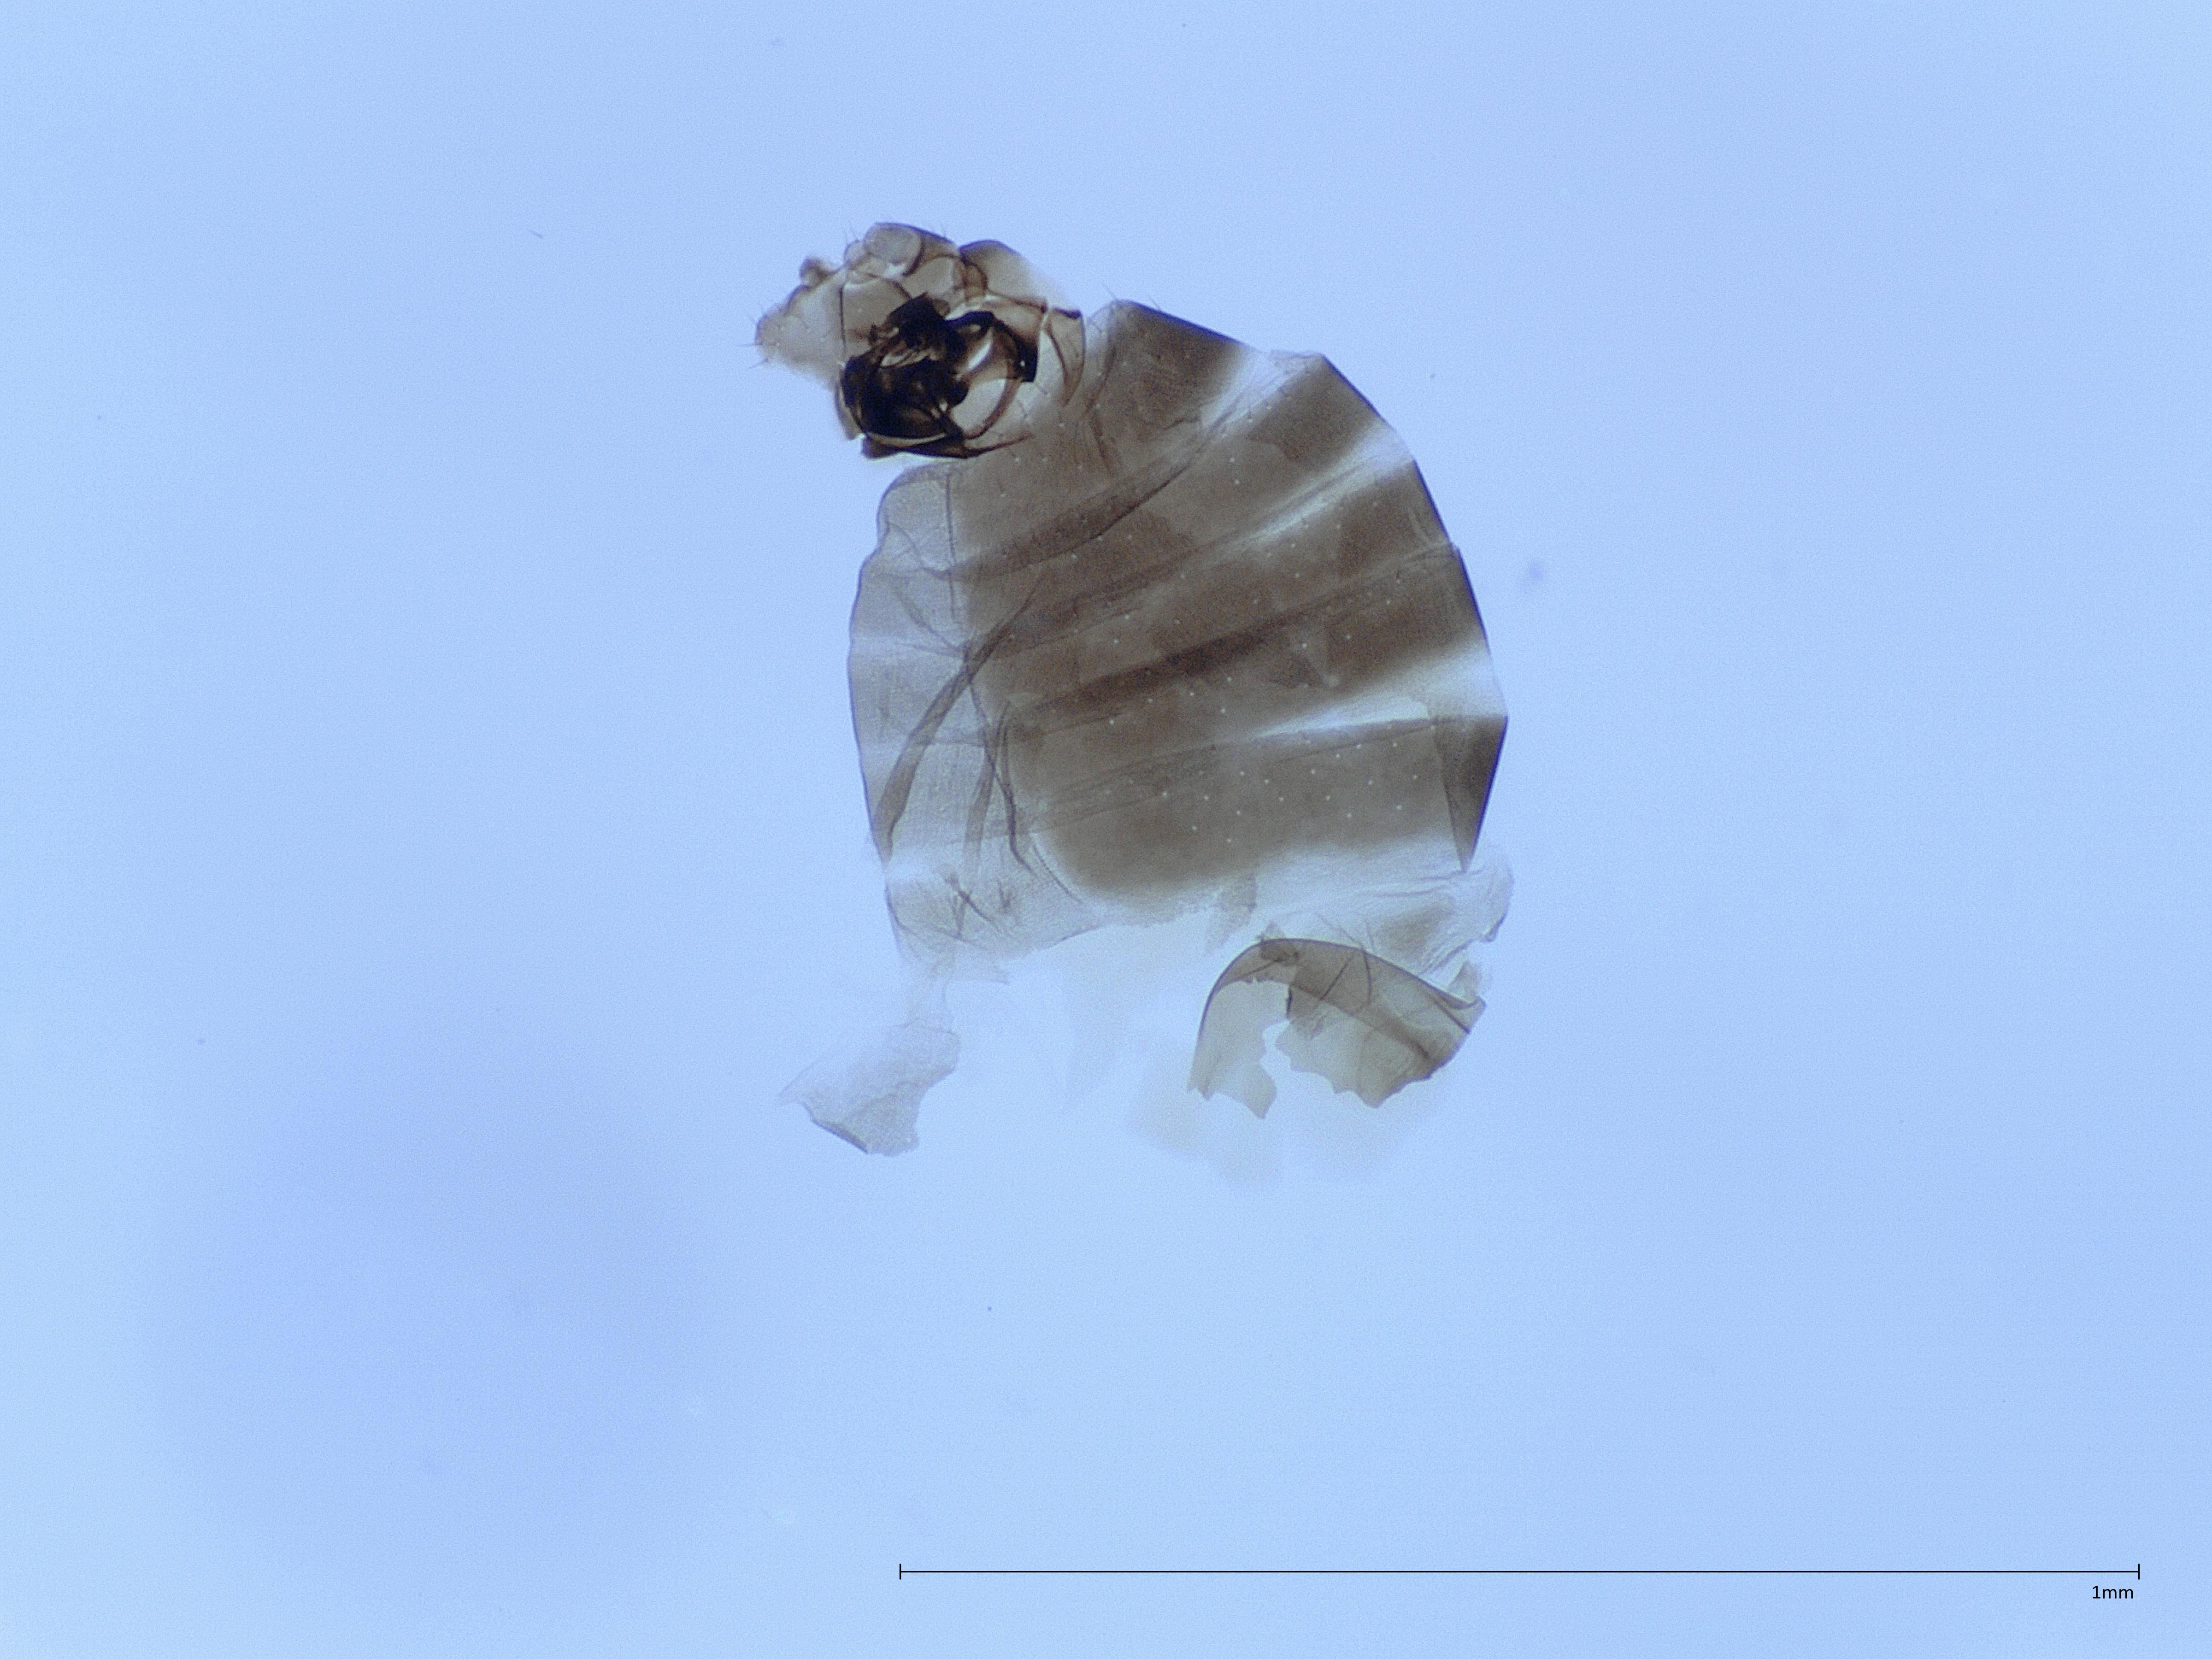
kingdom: Animalia
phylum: Arthropoda
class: Insecta
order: Diptera
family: Phoridae
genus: Metopina
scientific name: Metopina galeata
